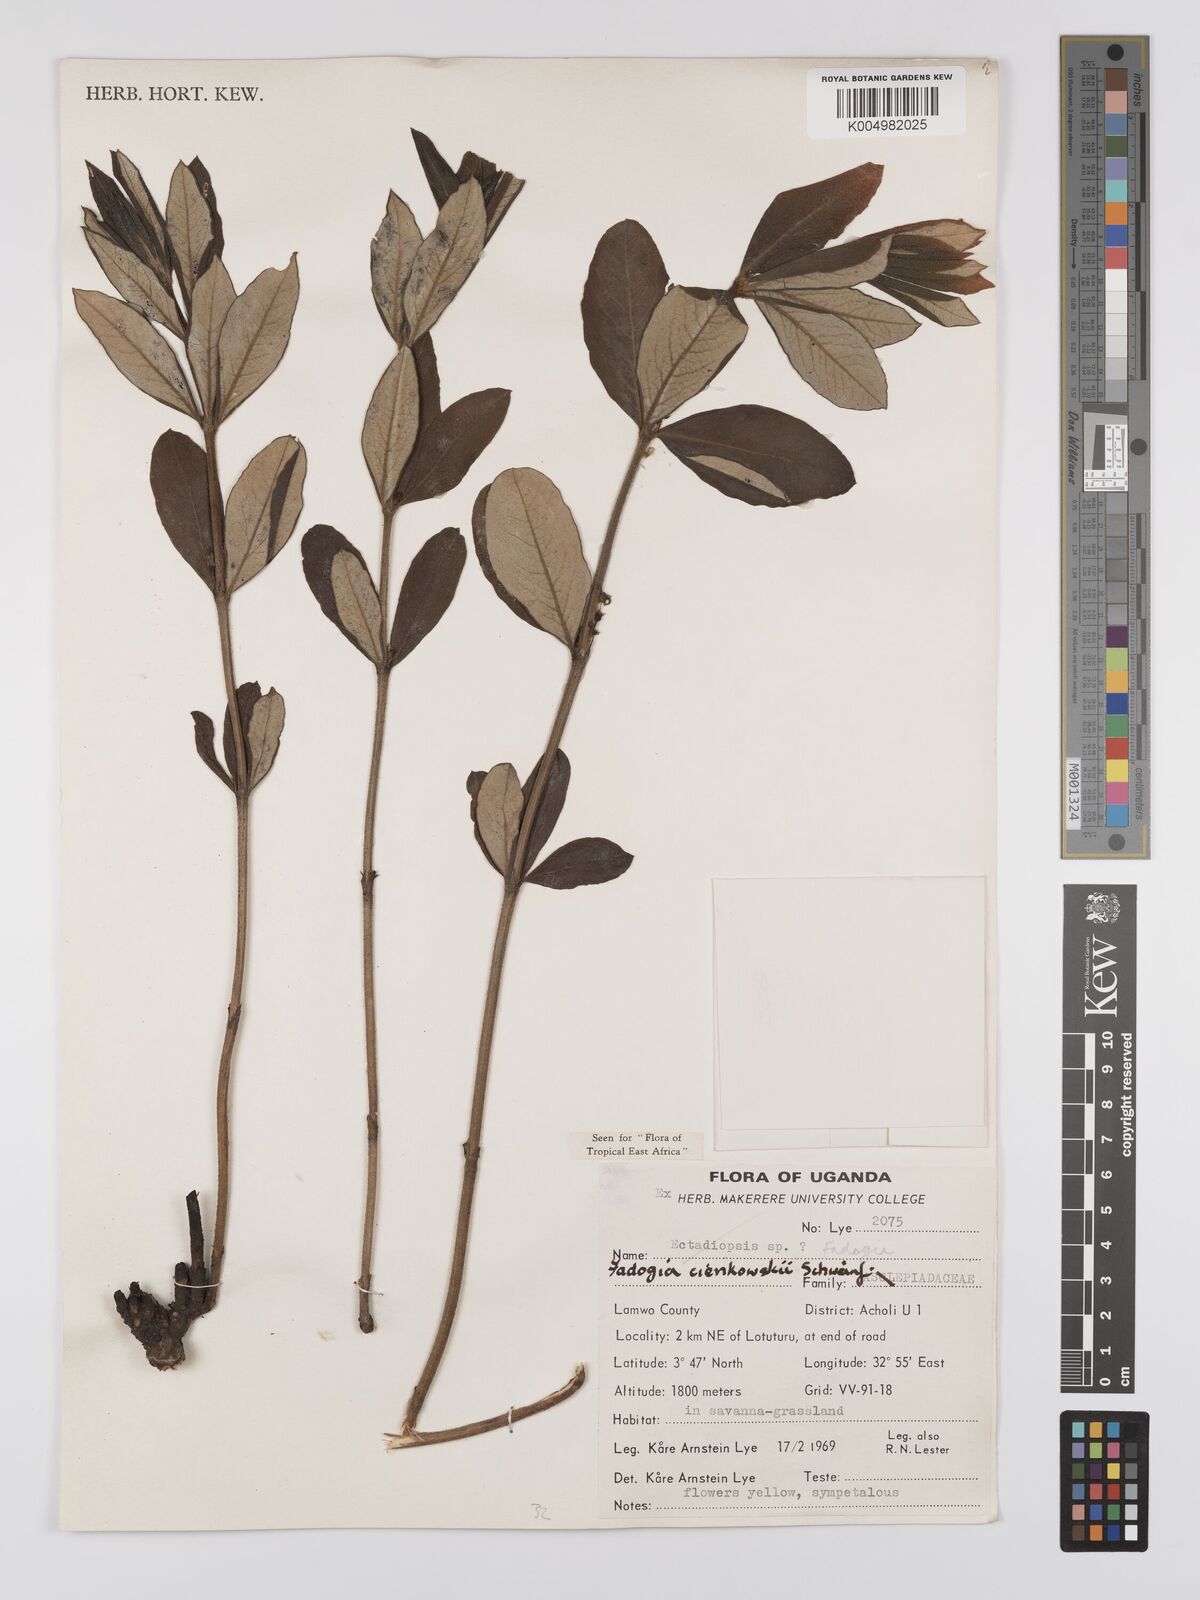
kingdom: Plantae
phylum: Tracheophyta
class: Magnoliopsida
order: Gentianales
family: Rubiaceae
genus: Fadogia
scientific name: Fadogia cienkowskii
